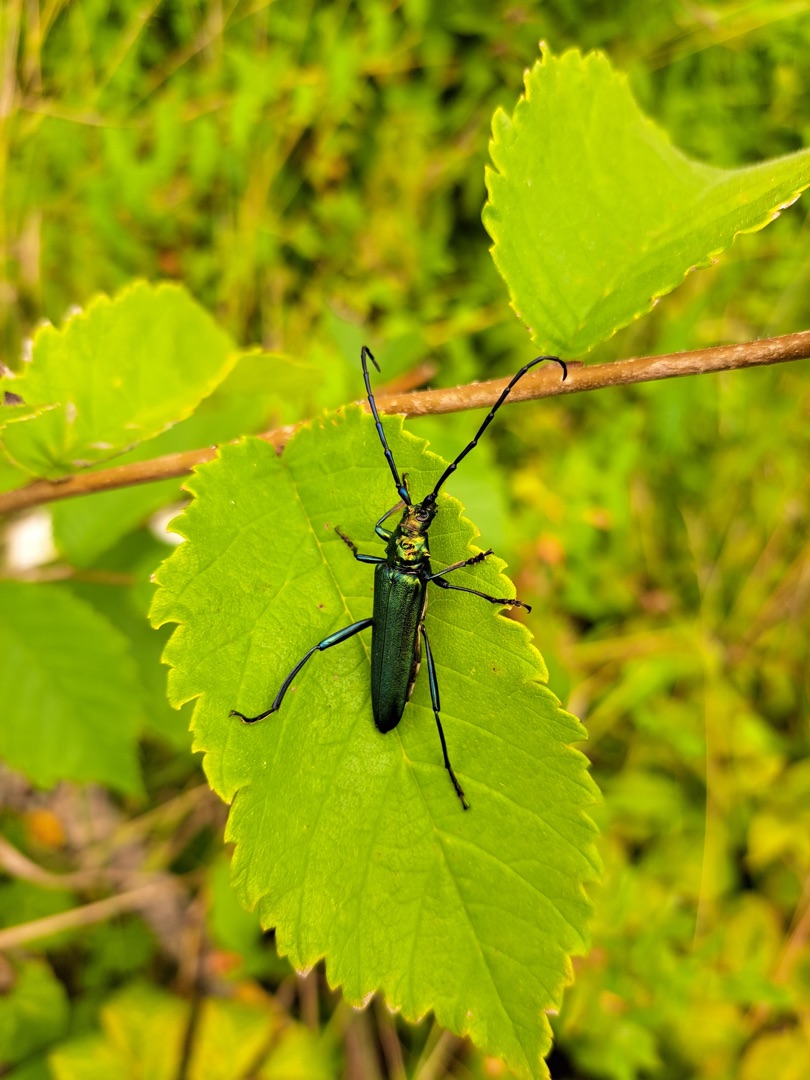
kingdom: Animalia
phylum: Arthropoda
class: Insecta
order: Coleoptera
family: Cerambycidae
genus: Aromia
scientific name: Aromia moschata
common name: Moskusbuk
